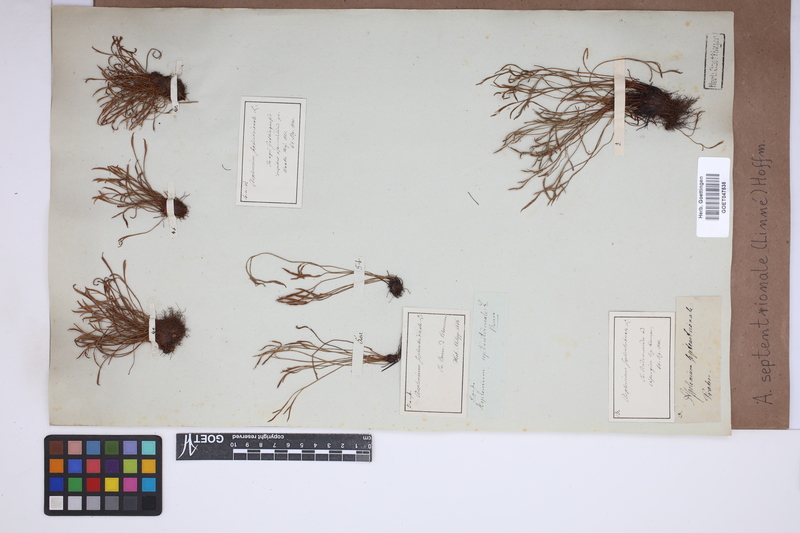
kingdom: Plantae
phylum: Tracheophyta
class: Polypodiopsida
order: Polypodiales
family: Aspleniaceae
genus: Asplenium
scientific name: Asplenium septentrionale
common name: Forked spleenwort
